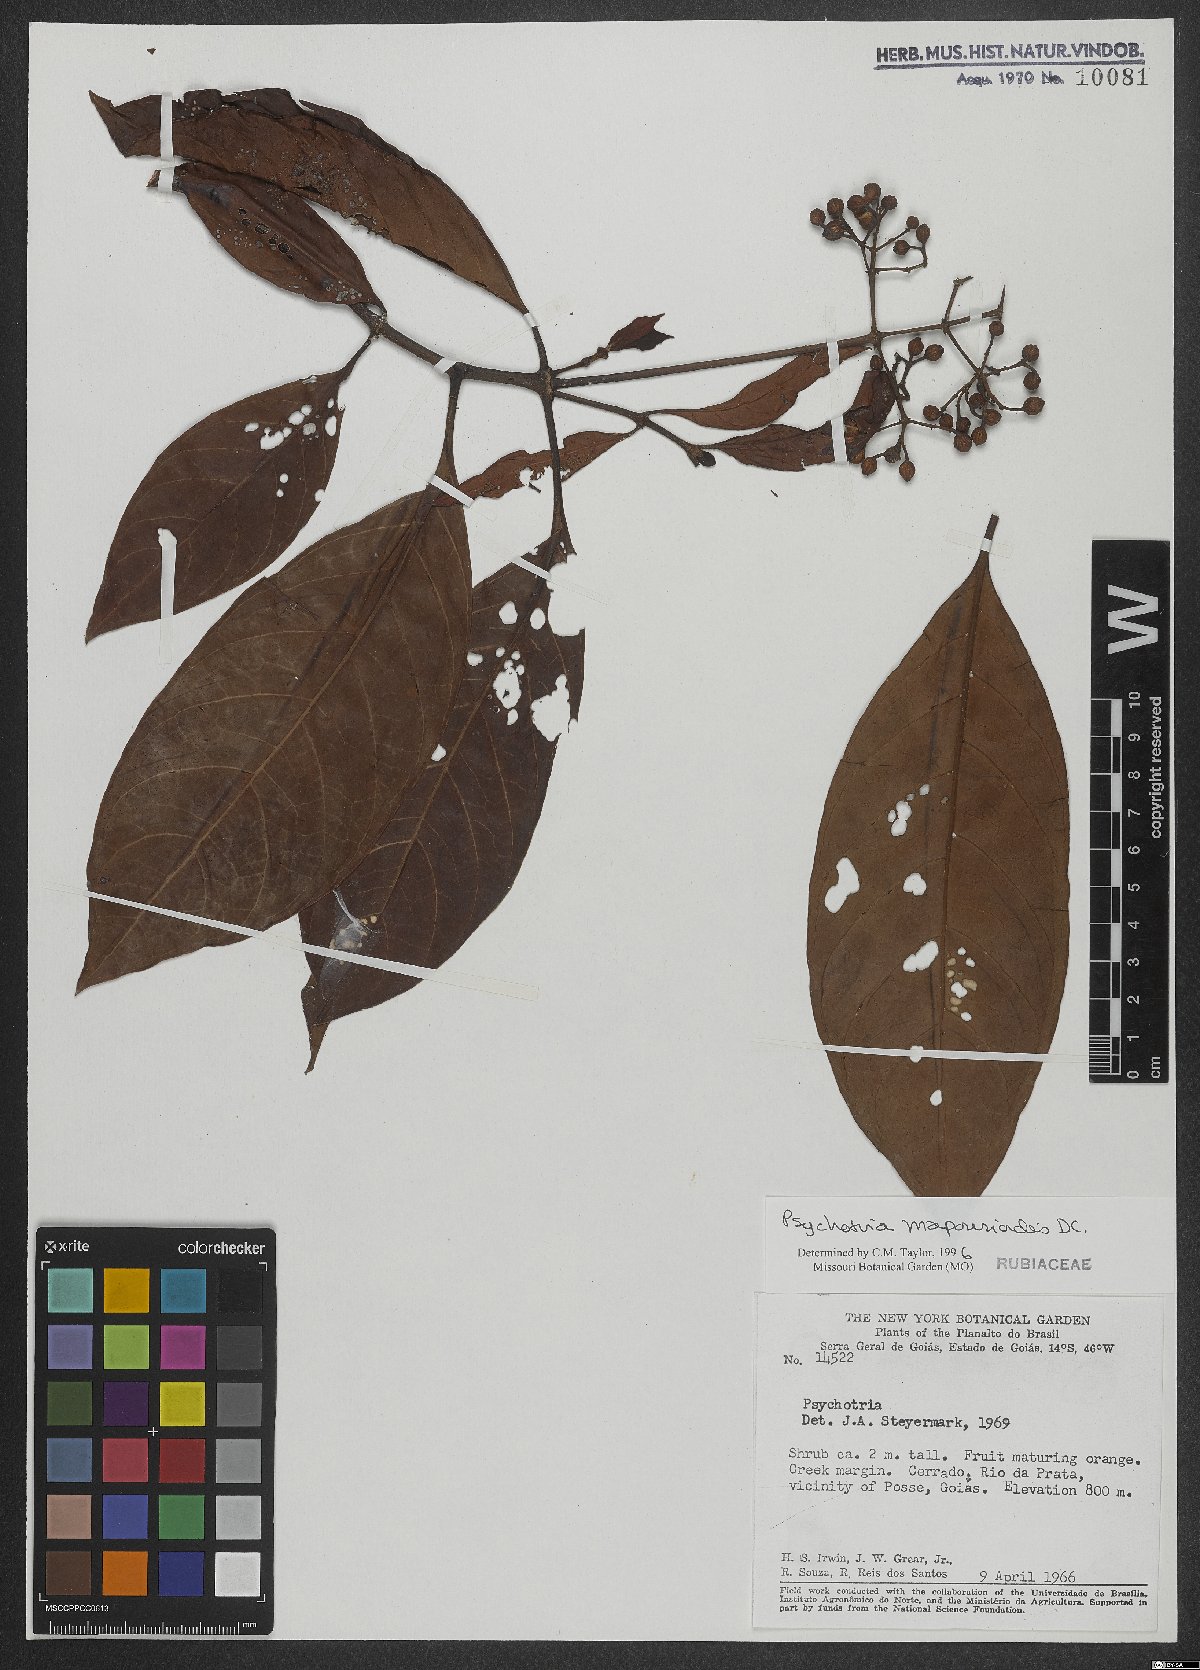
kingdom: Plantae
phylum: Tracheophyta
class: Magnoliopsida
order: Gentianales
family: Rubiaceae
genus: Psychotria
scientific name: Psychotria pedunculosa
